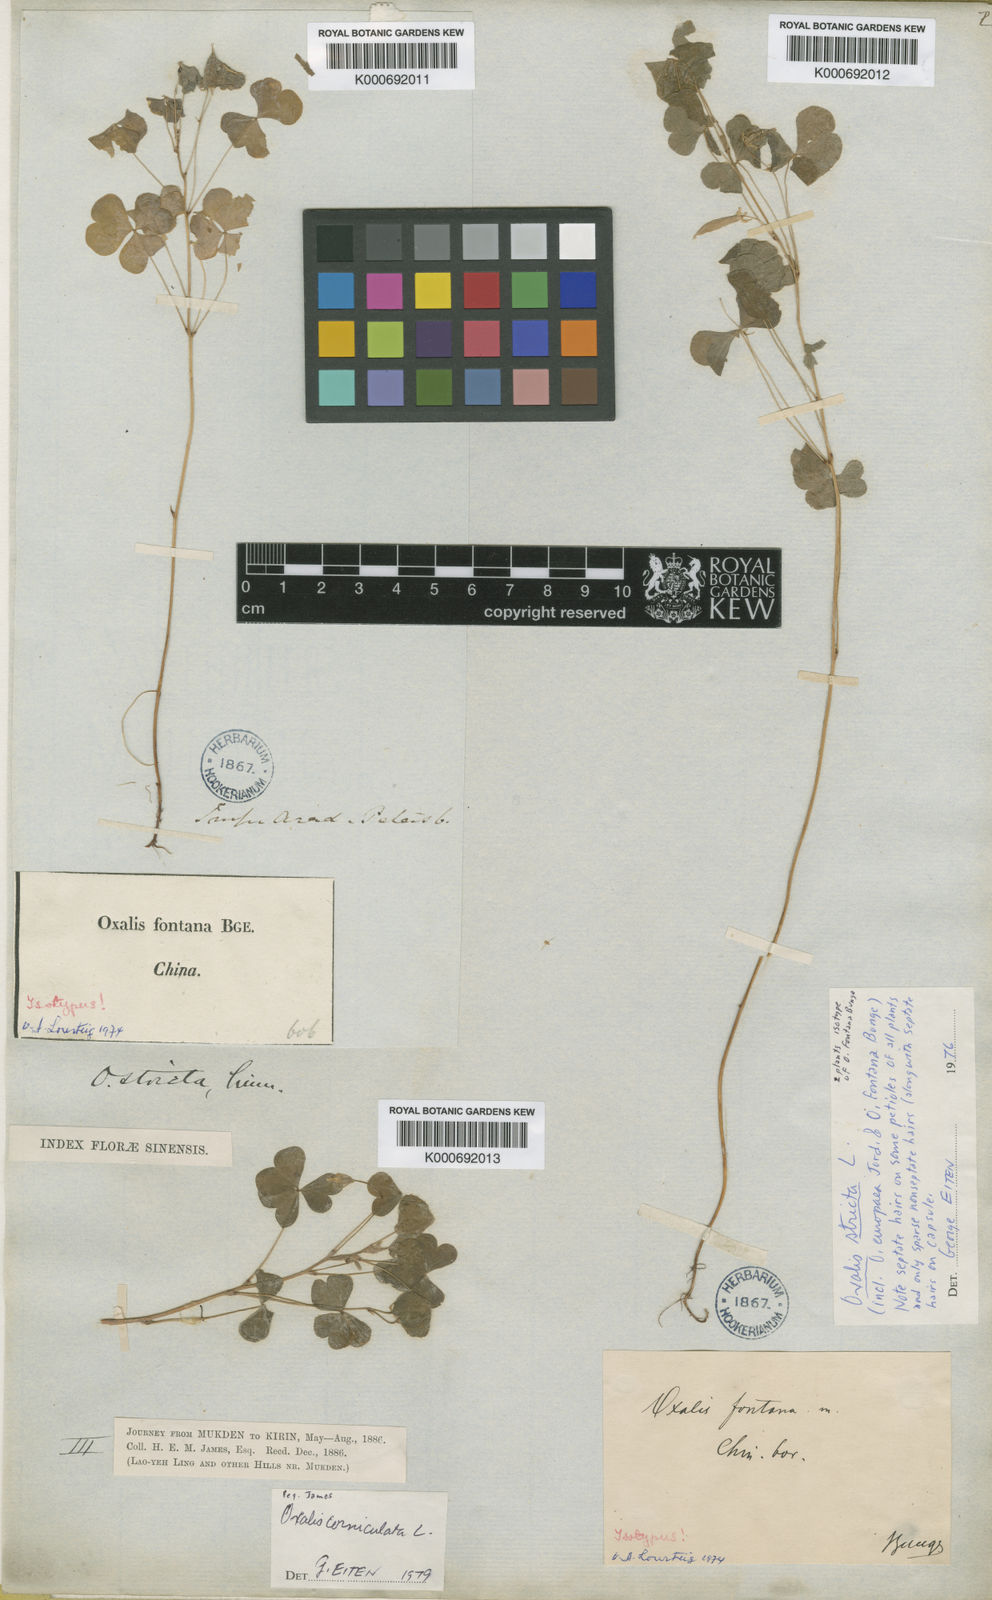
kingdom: Plantae
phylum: Tracheophyta
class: Magnoliopsida
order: Oxalidales
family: Oxalidaceae
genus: Oxalis
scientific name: Oxalis
